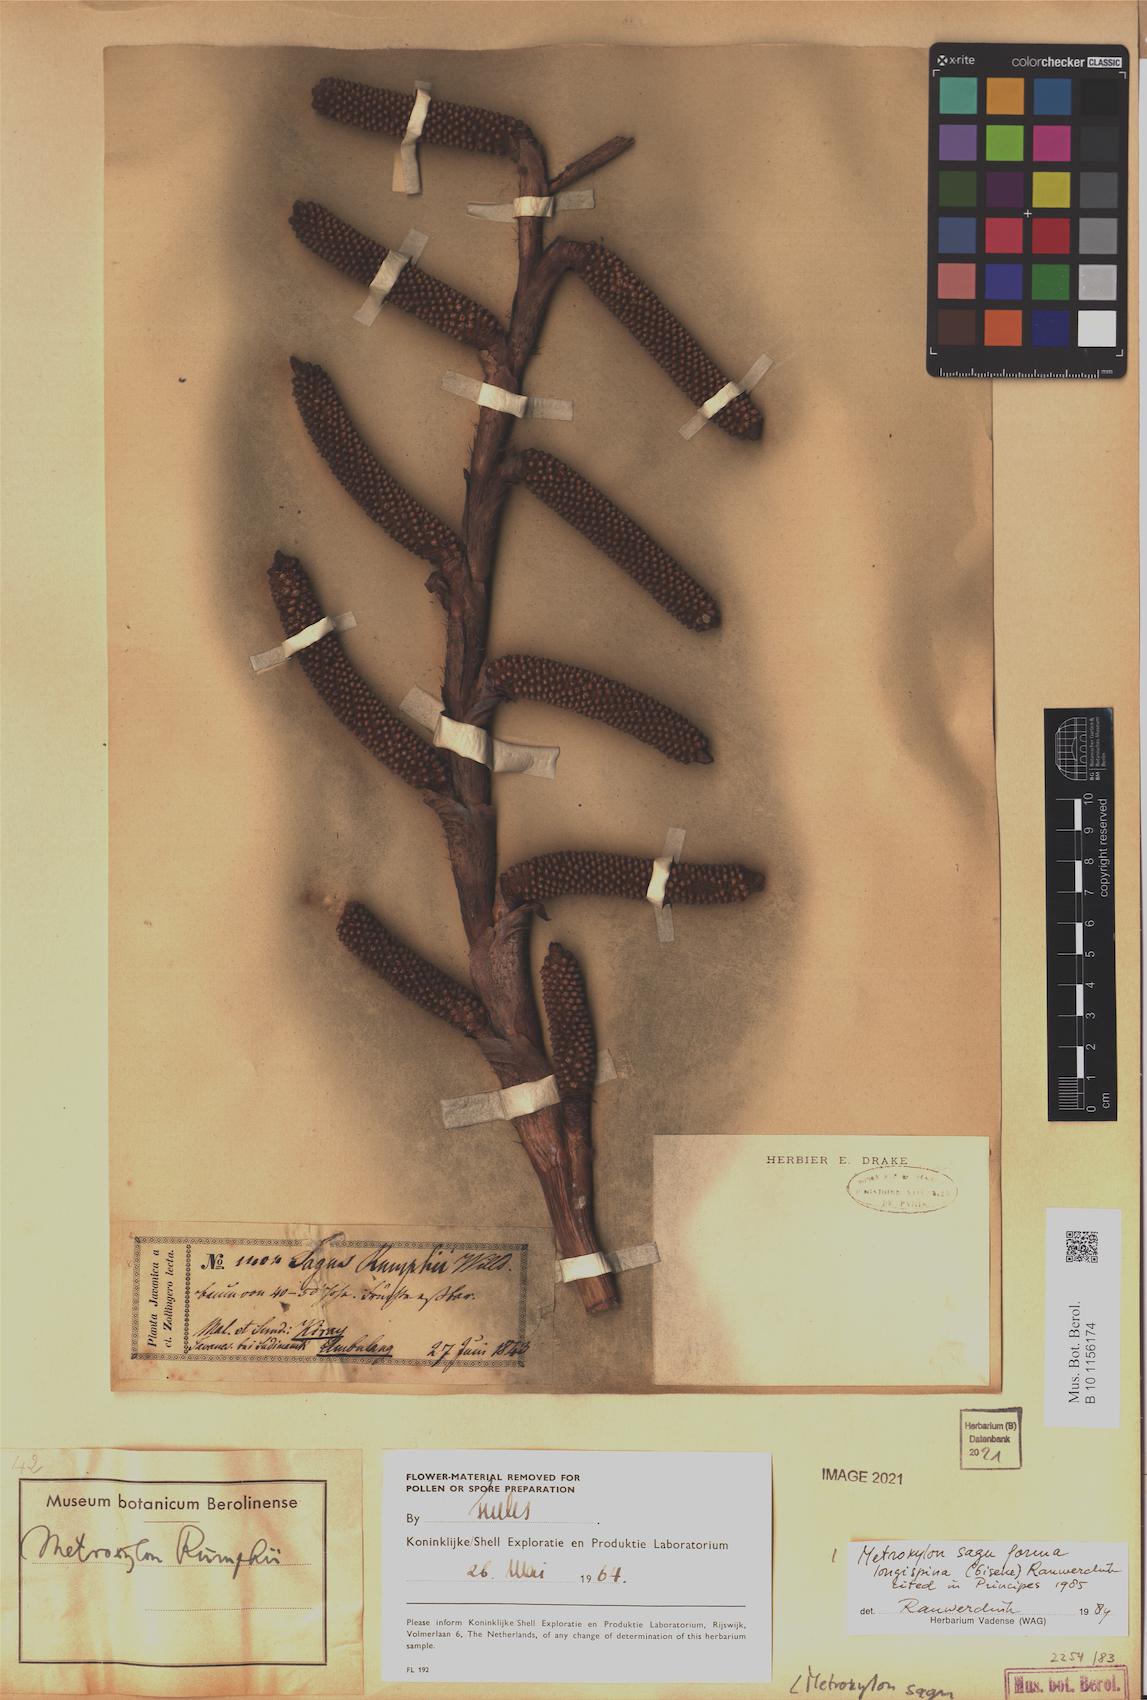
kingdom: Plantae
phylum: Tracheophyta
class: Liliopsida
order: Arecales
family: Arecaceae
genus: Metroxylon
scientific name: Metroxylon sagu
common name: Sago palm
